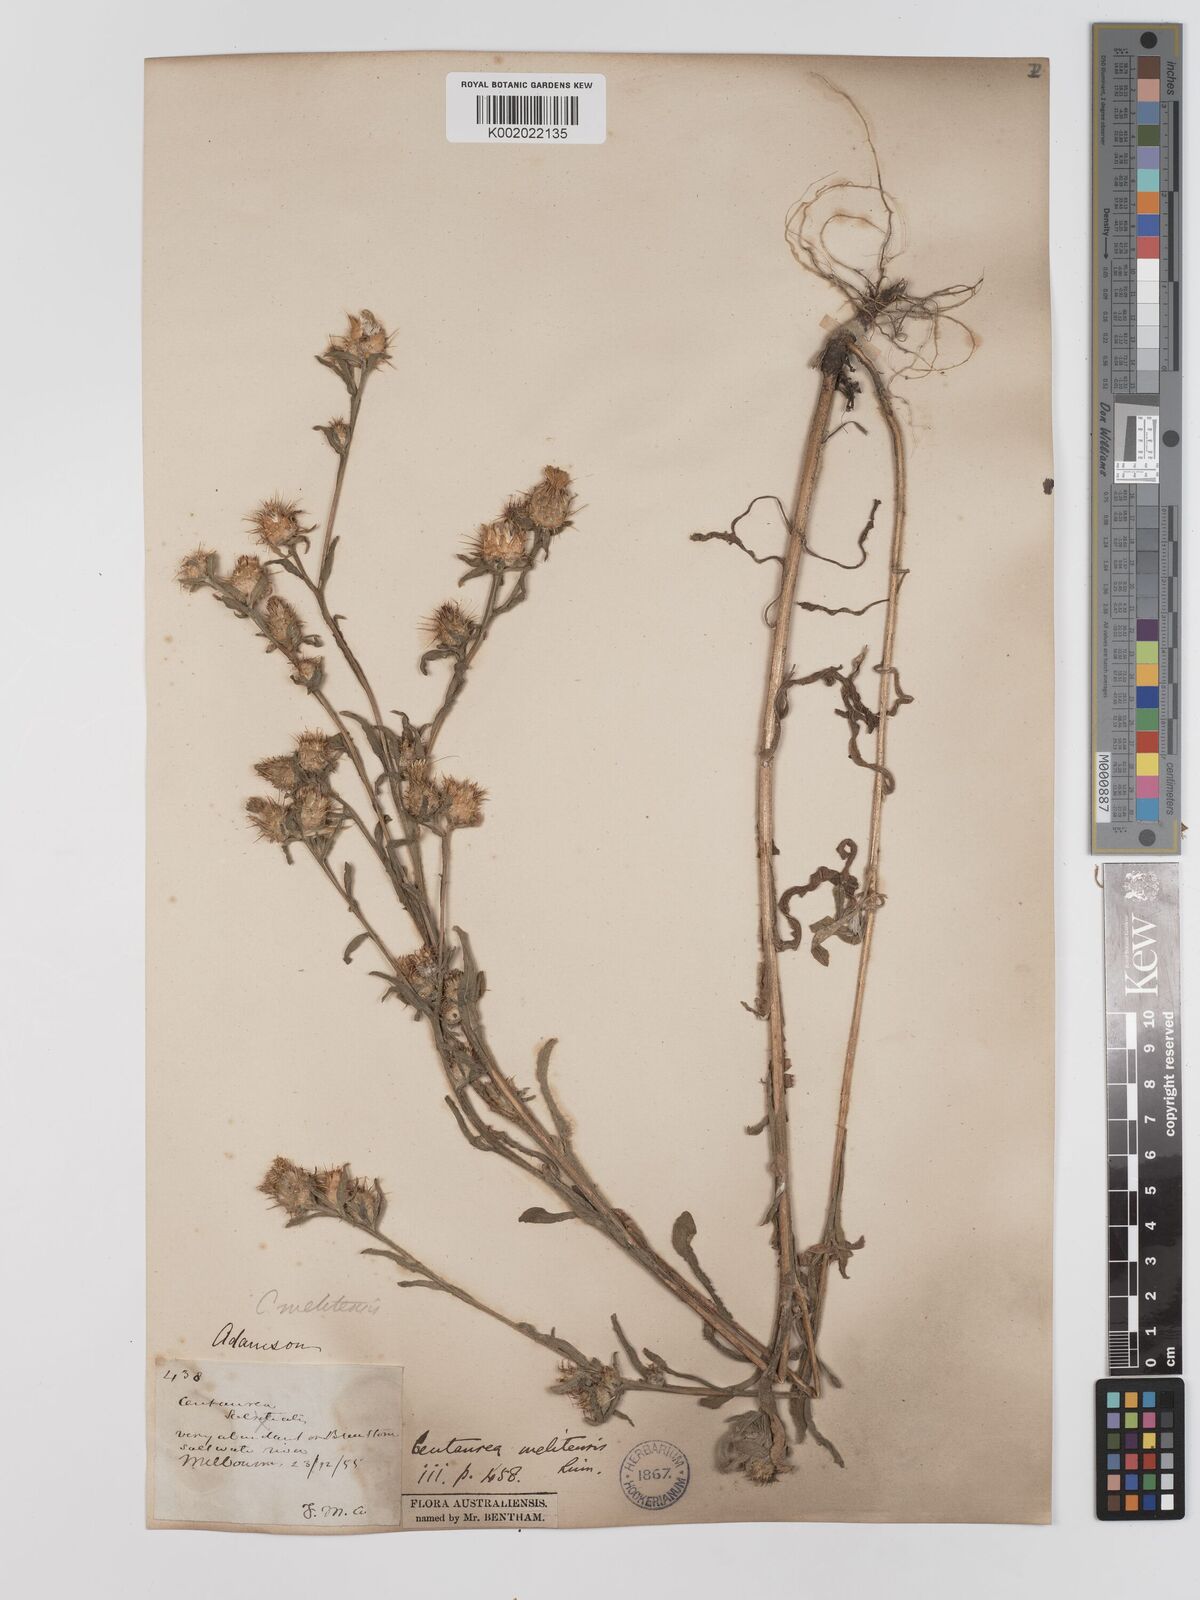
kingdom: Plantae
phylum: Tracheophyta
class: Magnoliopsida
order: Asterales
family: Asteraceae
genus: Centaurea
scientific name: Centaurea melitensis
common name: Maltese star-thistle
